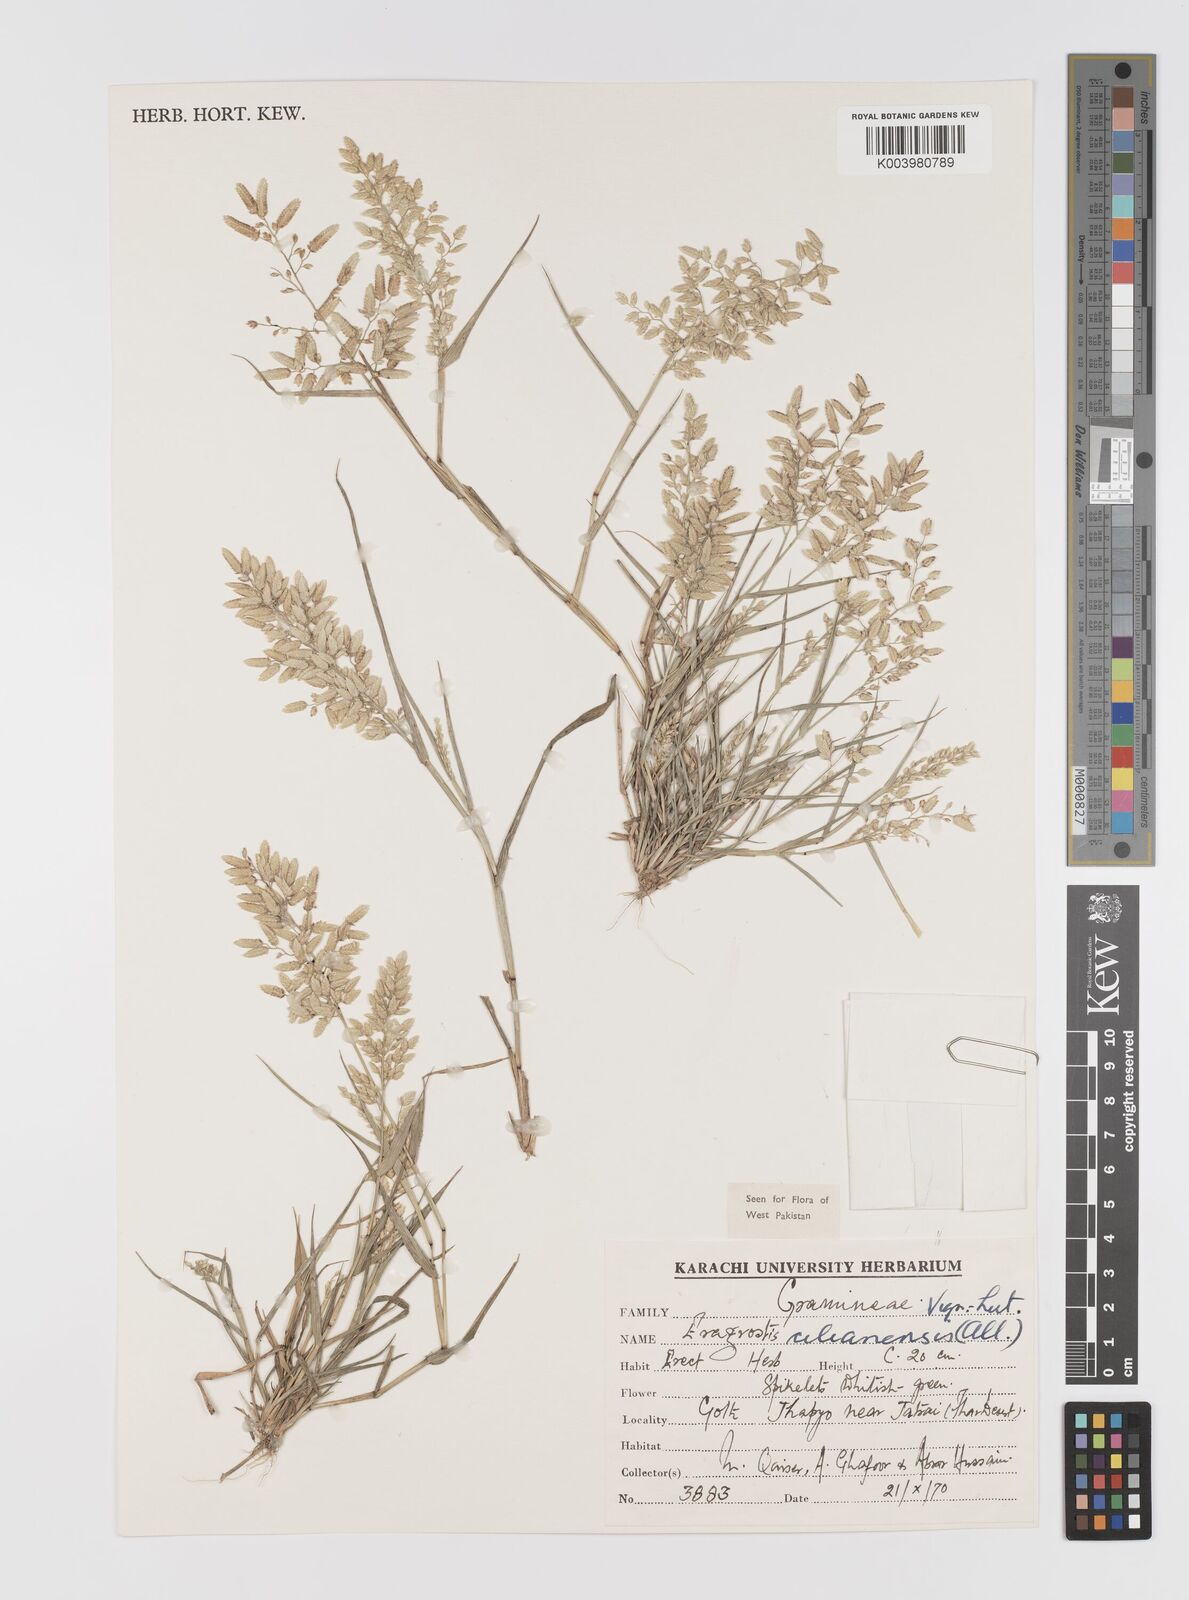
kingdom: Plantae
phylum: Tracheophyta
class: Liliopsida
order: Poales
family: Poaceae
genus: Eragrostis
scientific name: Eragrostis cilianensis
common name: Stinkgrass
